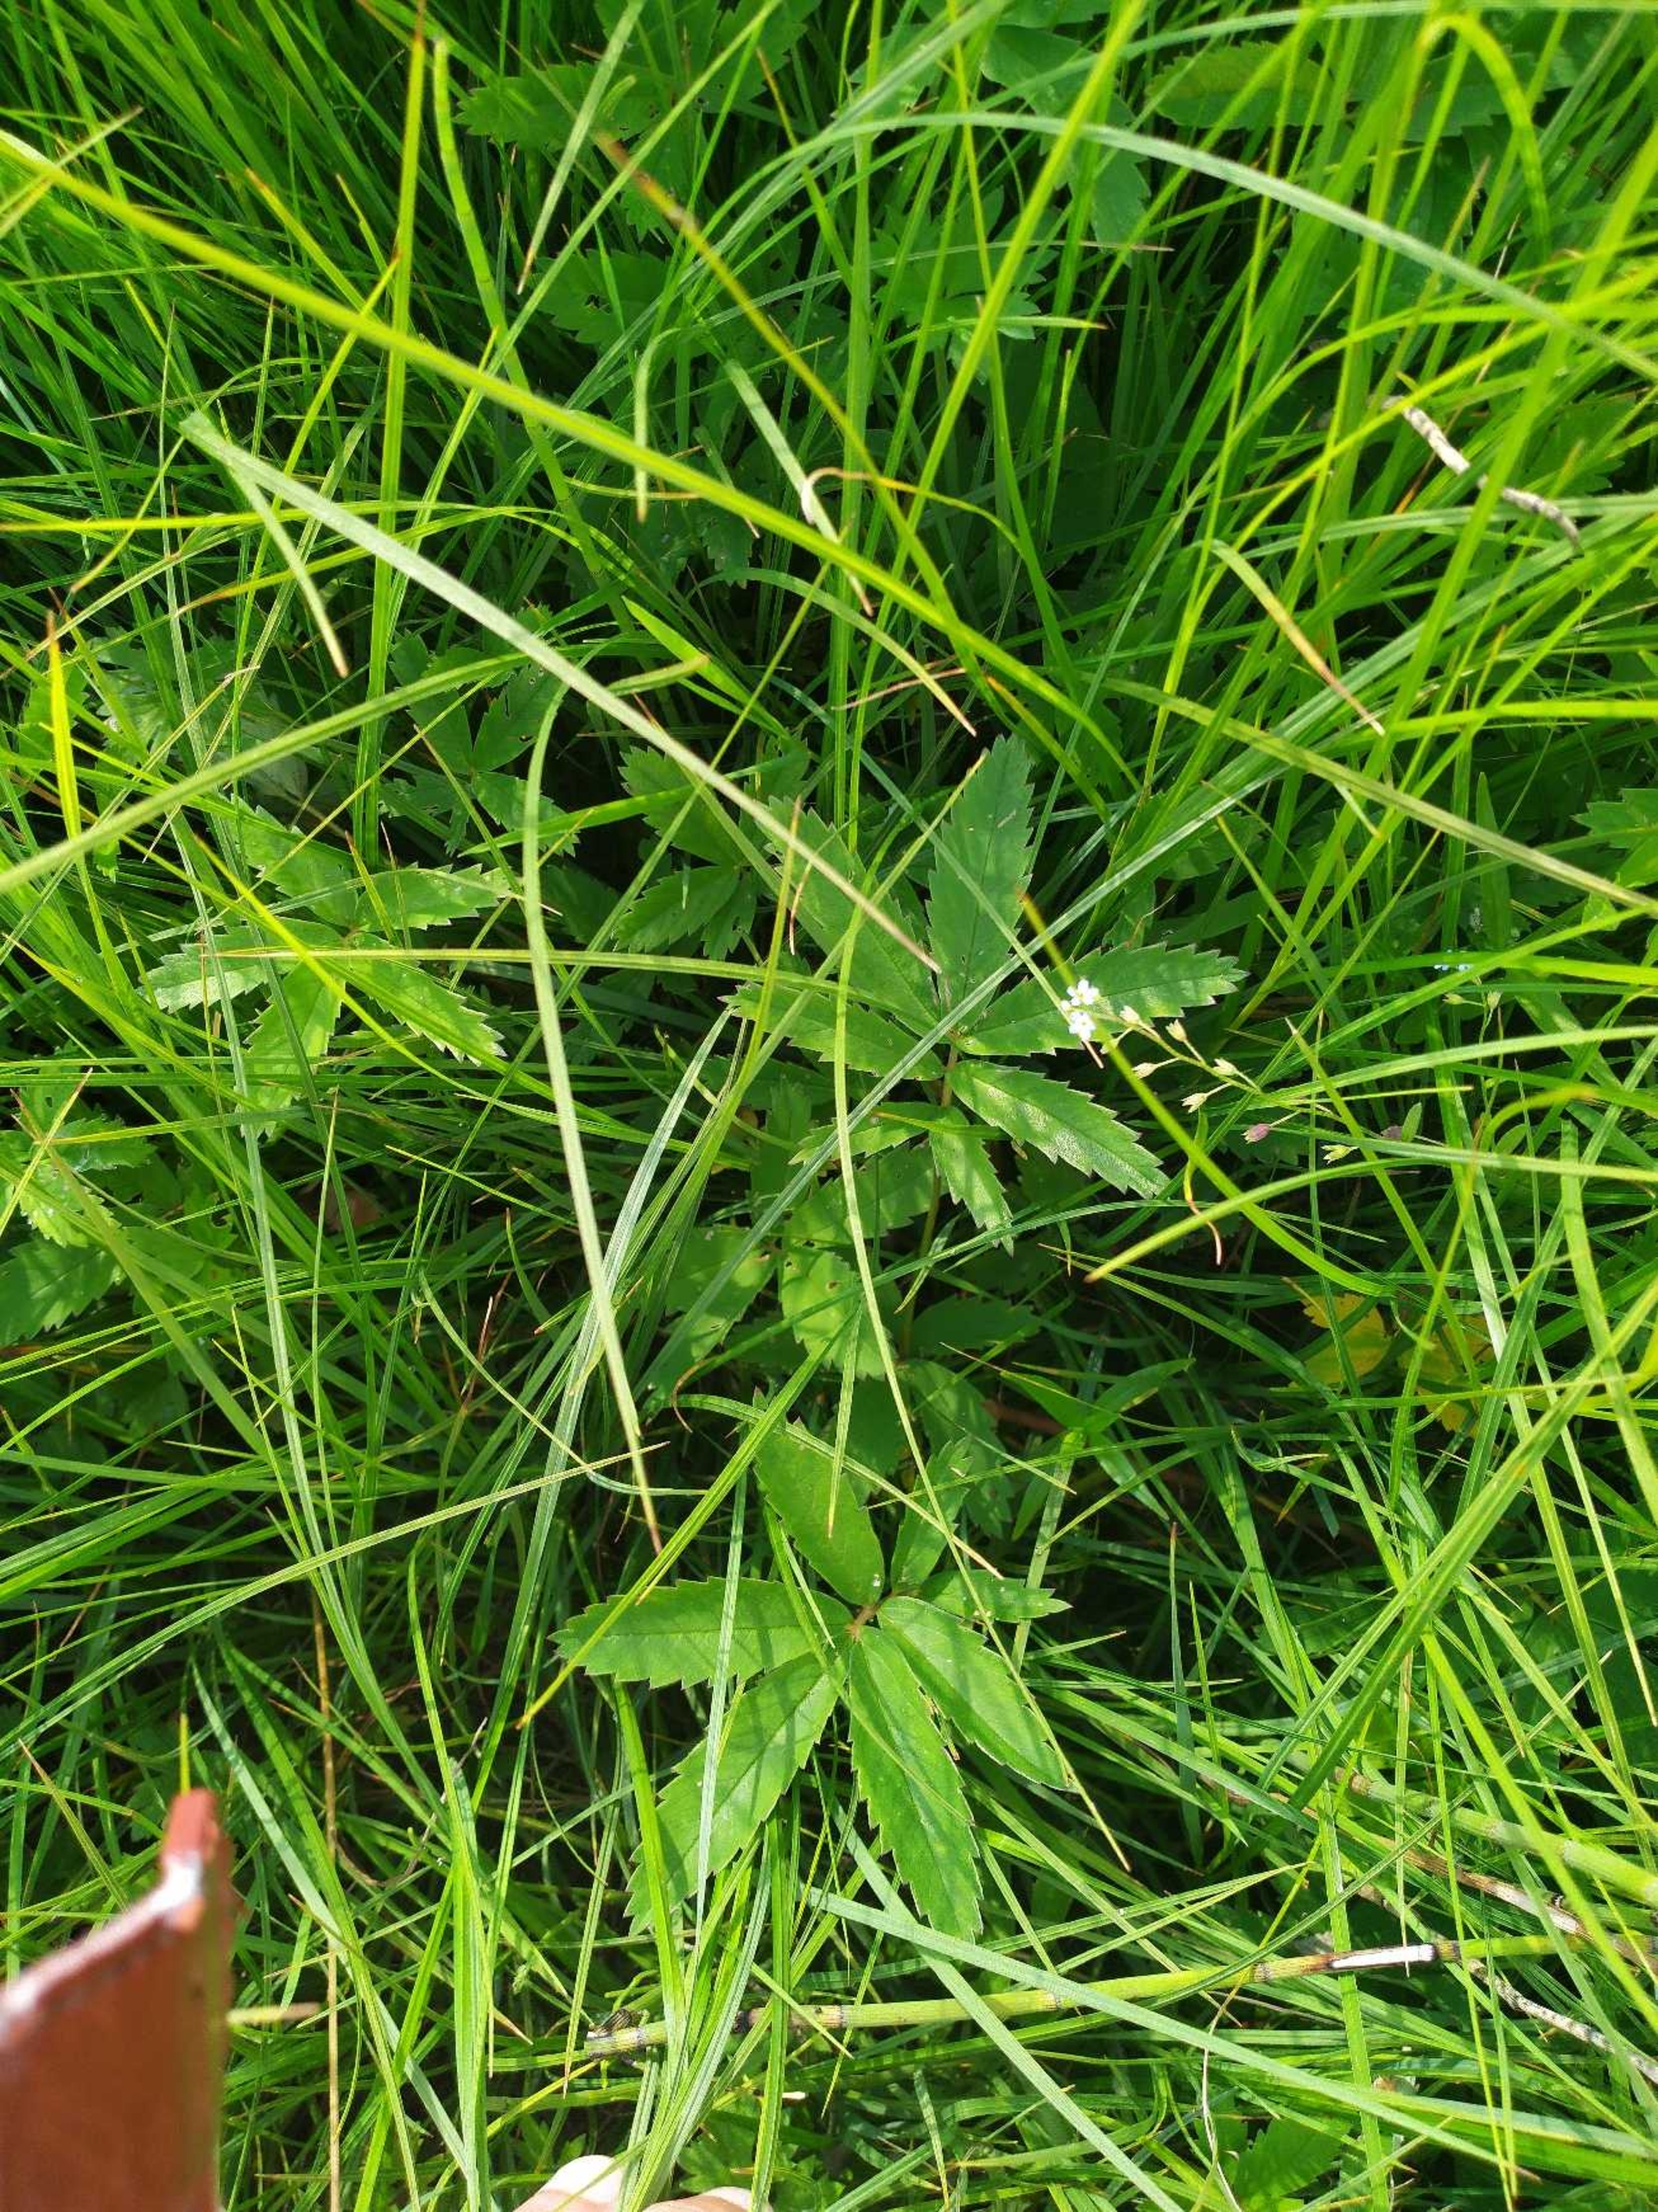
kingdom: Plantae
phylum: Tracheophyta
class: Magnoliopsida
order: Rosales
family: Rosaceae
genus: Comarum
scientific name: Comarum palustre
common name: Kragefod
